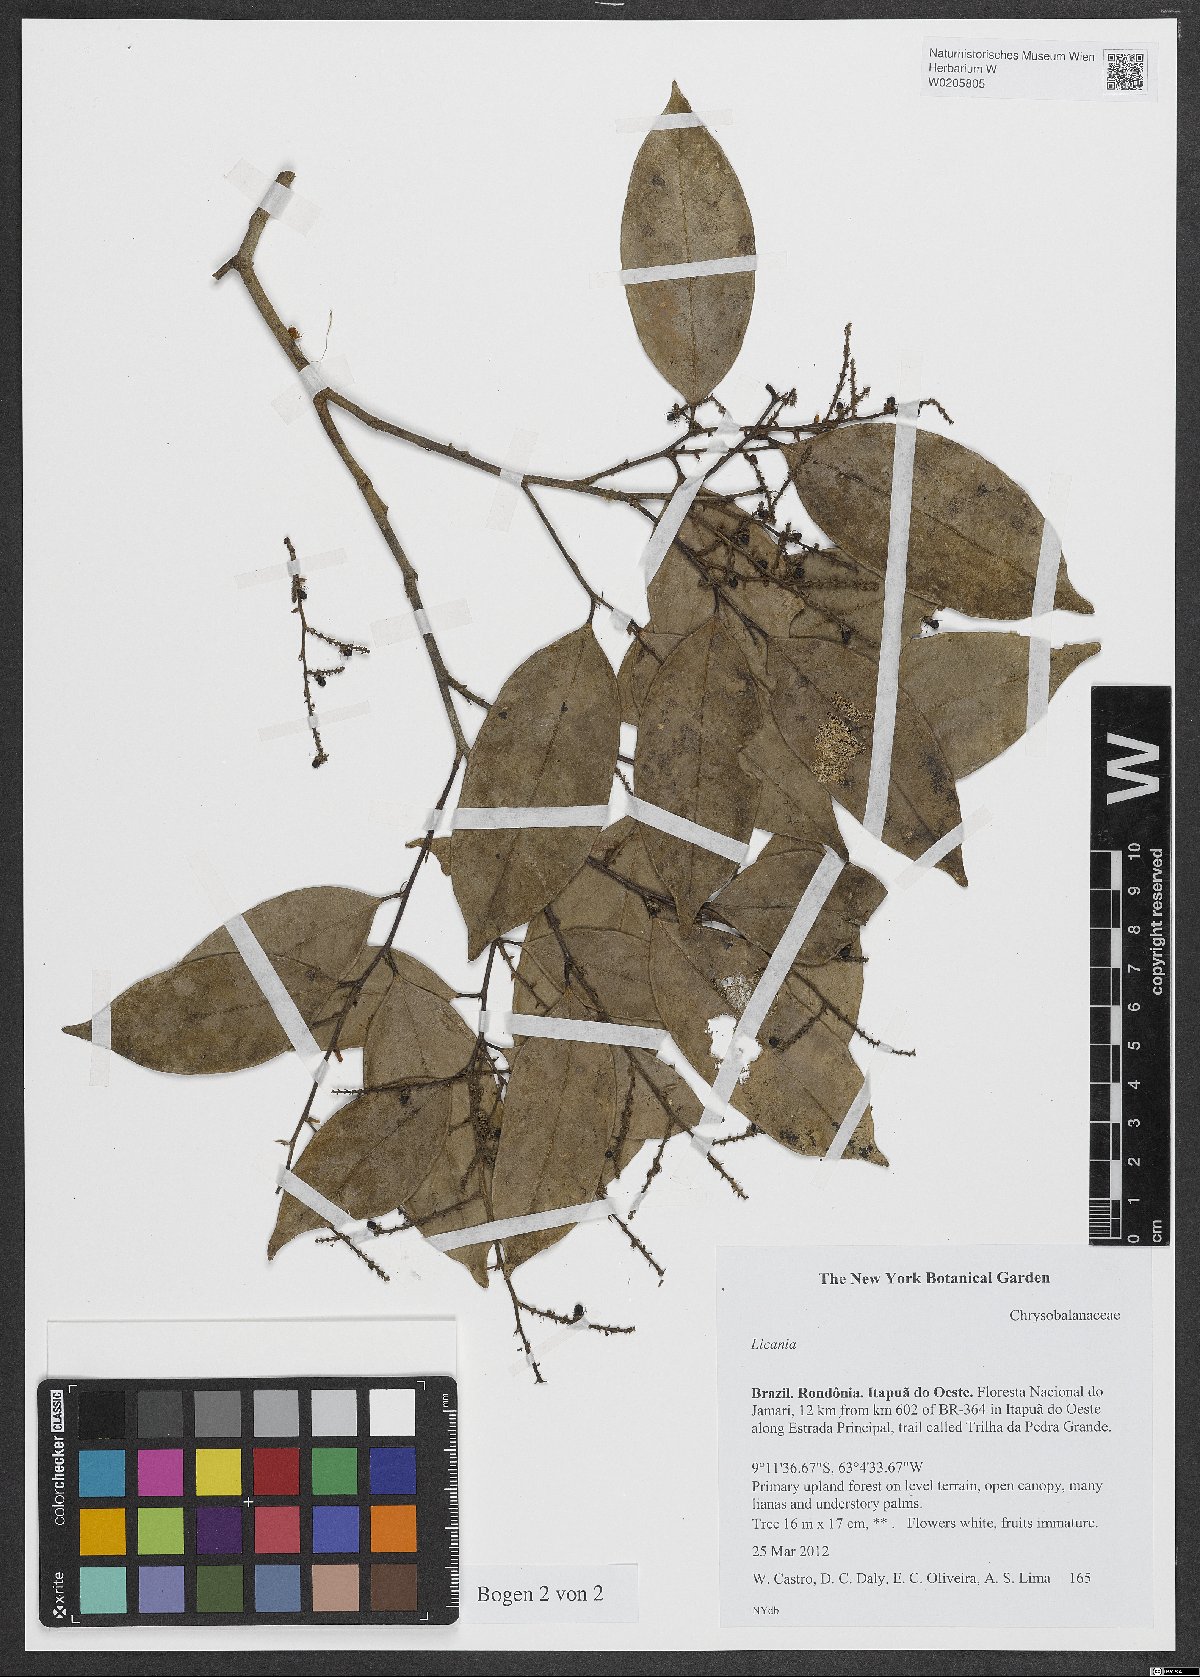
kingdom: Plantae
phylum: Tracheophyta
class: Magnoliopsida
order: Malpighiales
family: Chrysobalanaceae
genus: Licania
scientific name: Licania
